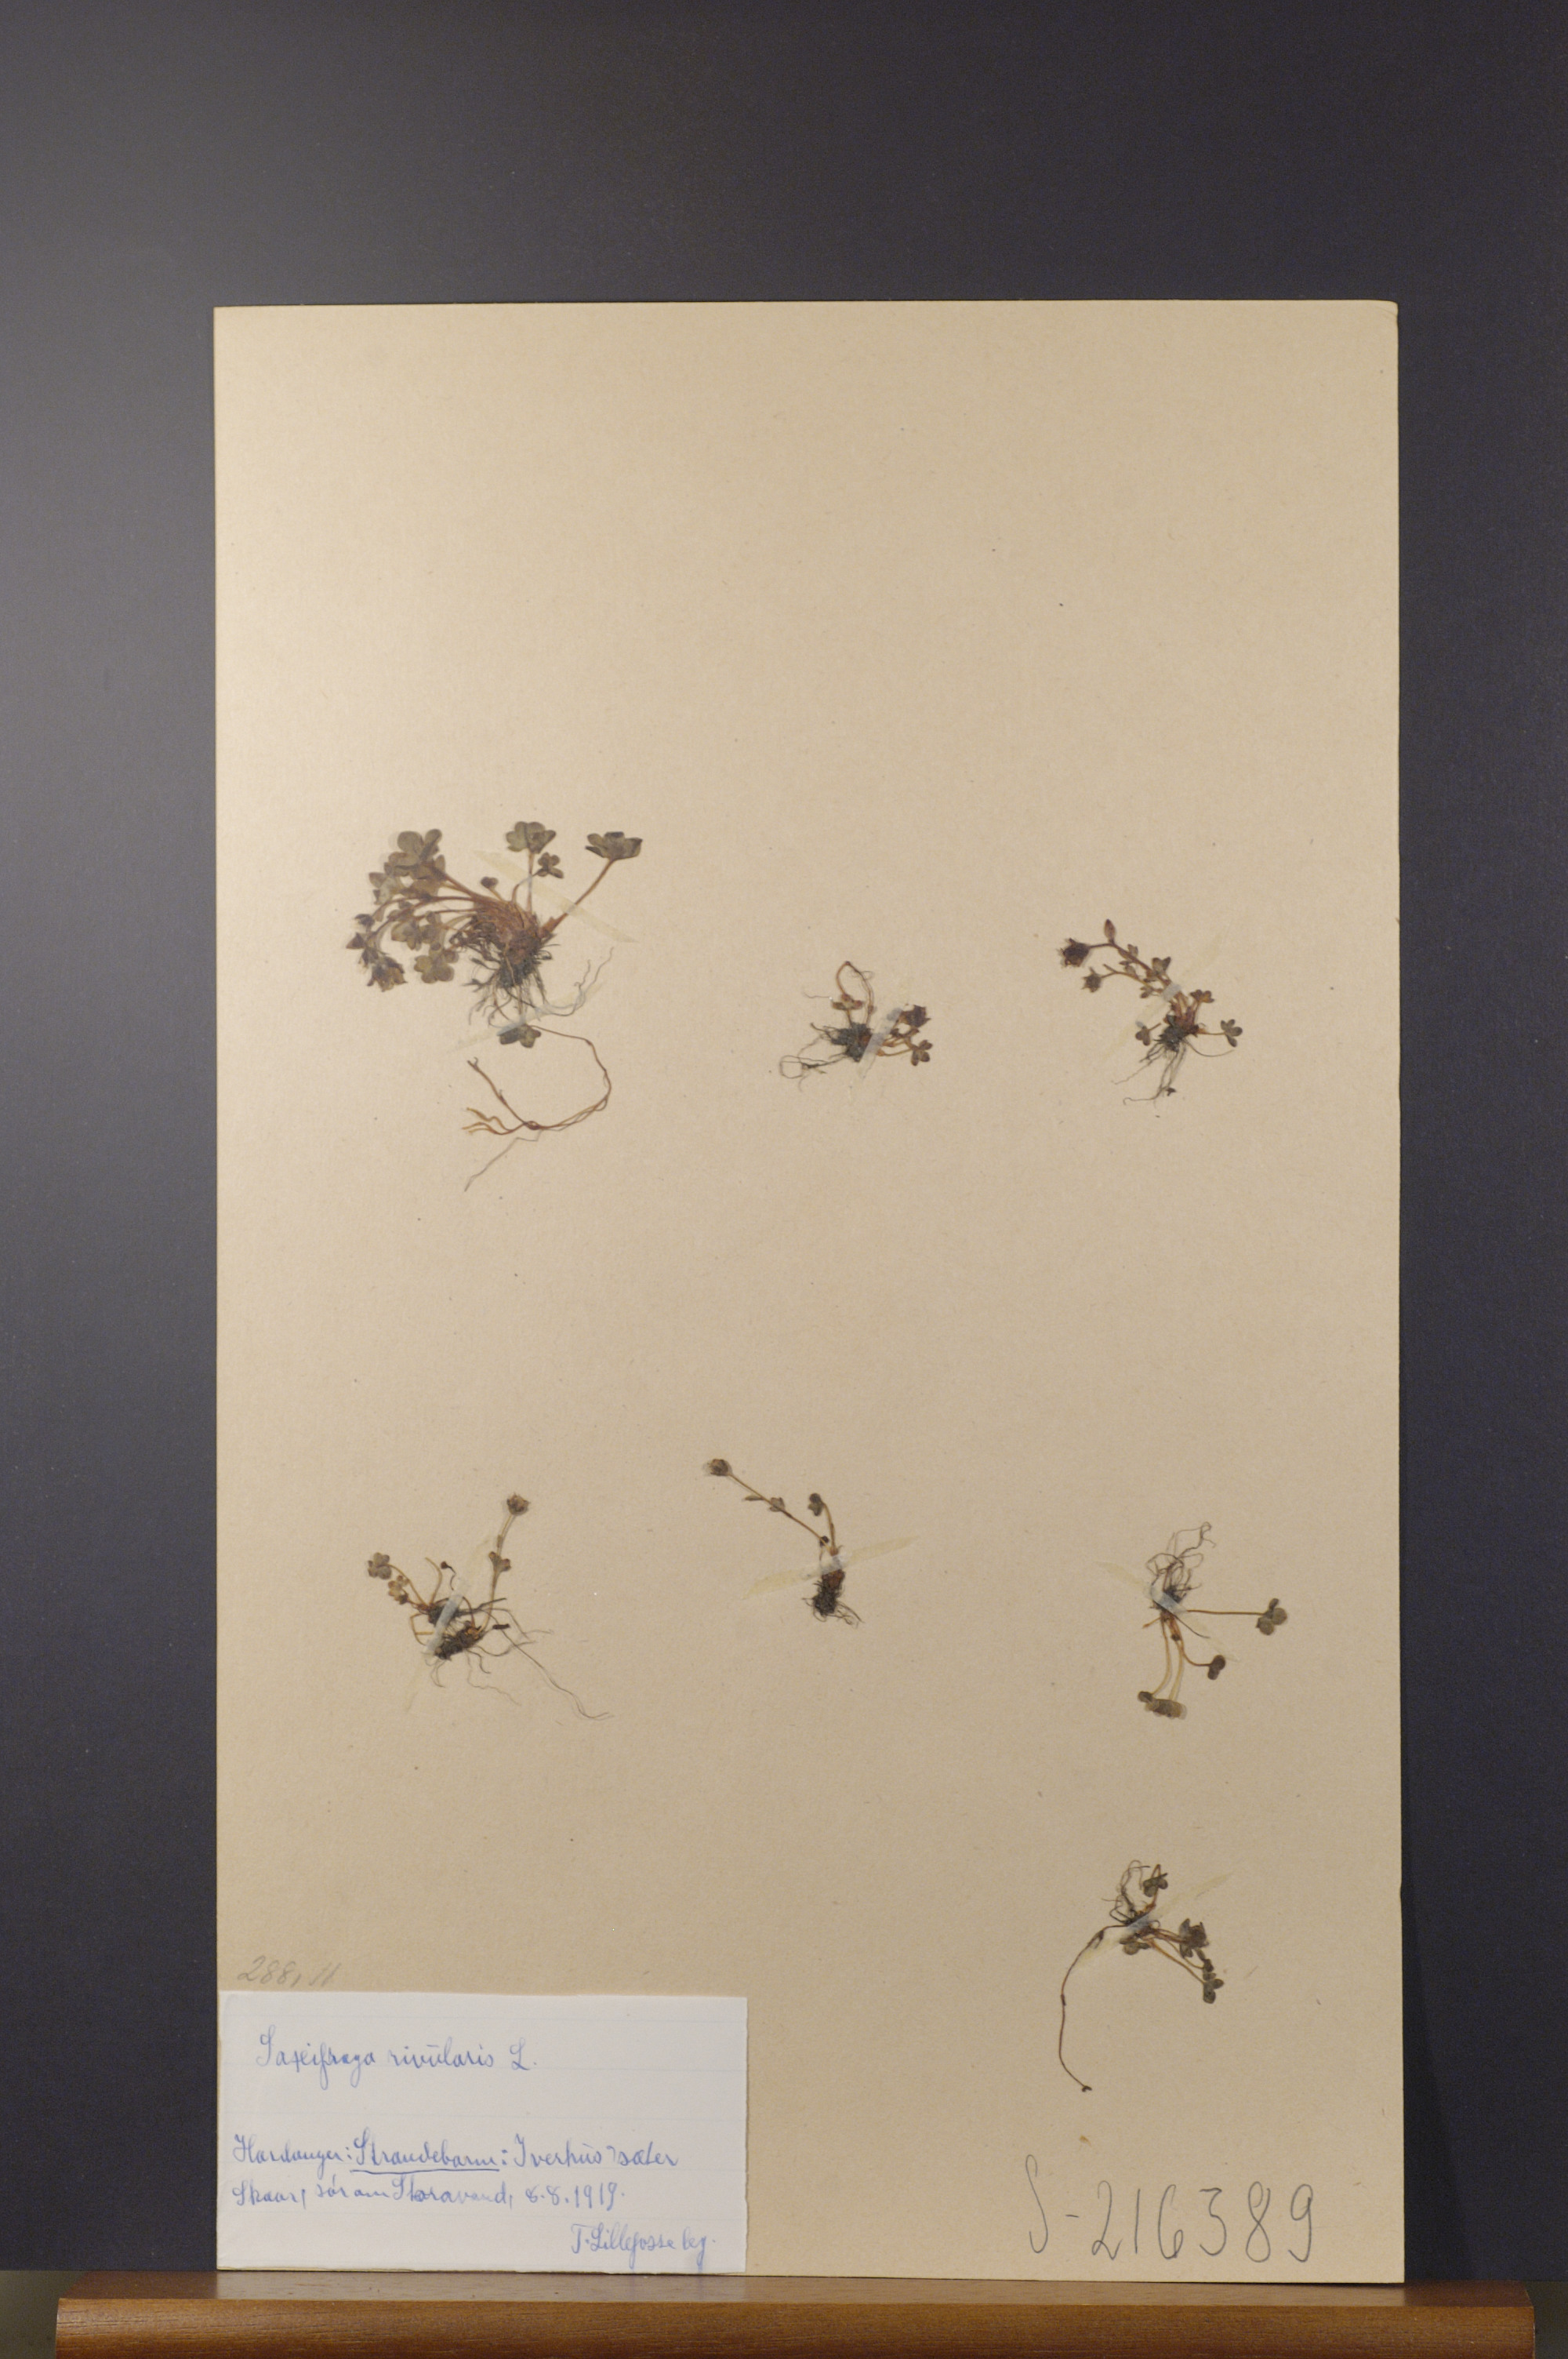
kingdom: Plantae
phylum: Tracheophyta
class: Magnoliopsida
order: Saxifragales
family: Saxifragaceae
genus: Saxifraga
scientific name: Saxifraga rivularis
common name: Highland saxifrage
